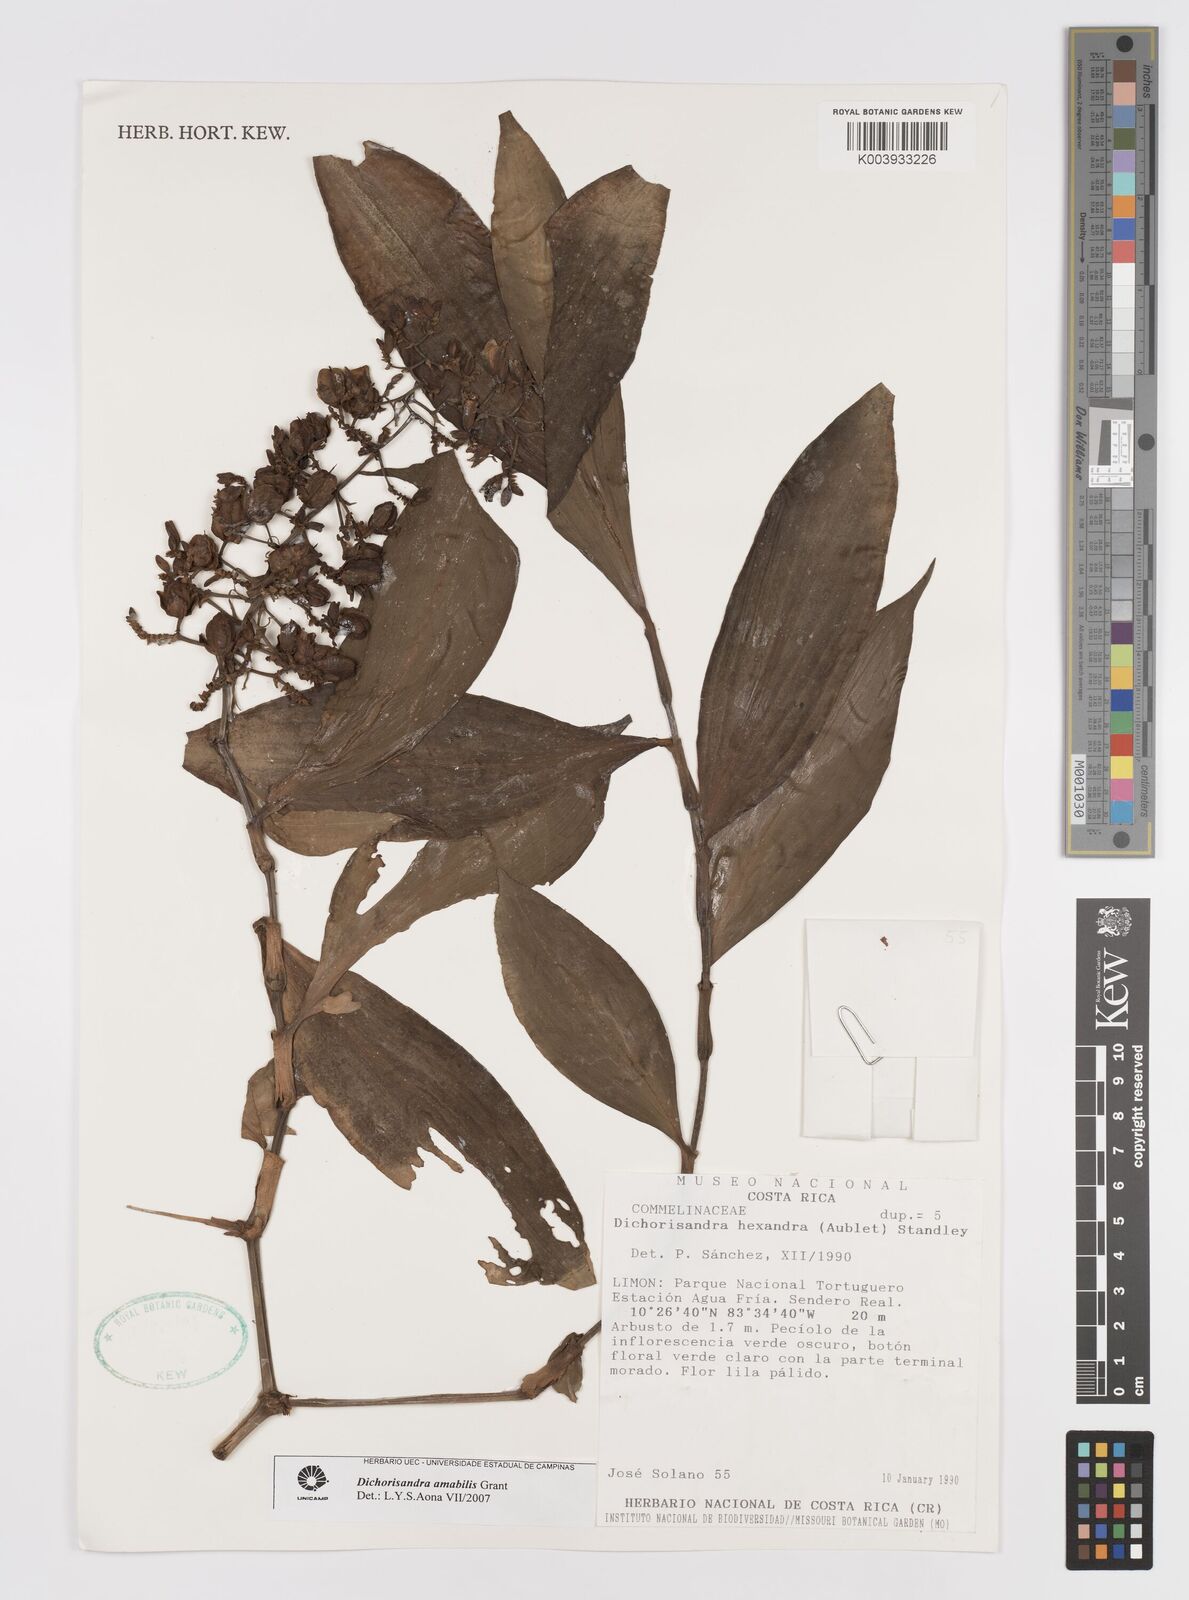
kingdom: Plantae
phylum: Tracheophyta
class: Liliopsida
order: Commelinales
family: Commelinaceae
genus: Dichorisandra
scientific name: Dichorisandra amabilis
